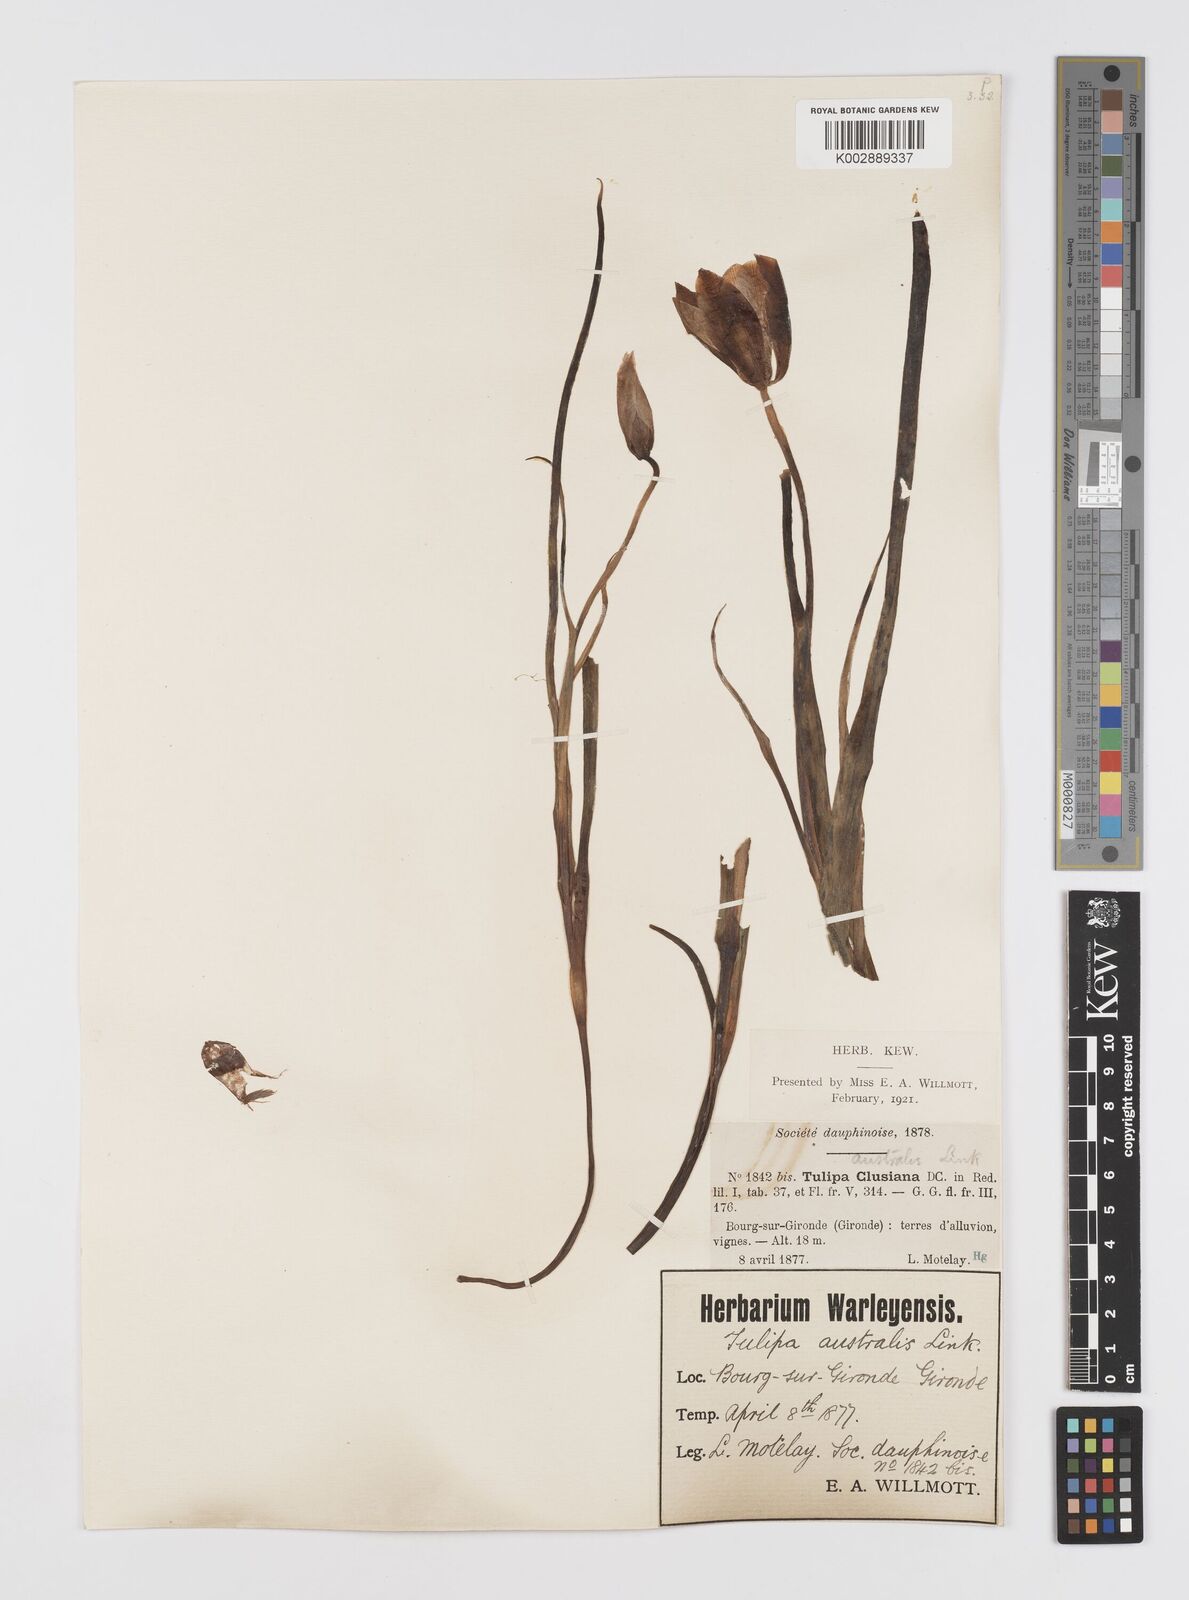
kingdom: Plantae
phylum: Tracheophyta
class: Liliopsida
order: Liliales
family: Liliaceae
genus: Tulipa
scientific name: Tulipa sylvestris
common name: Wild tulip
